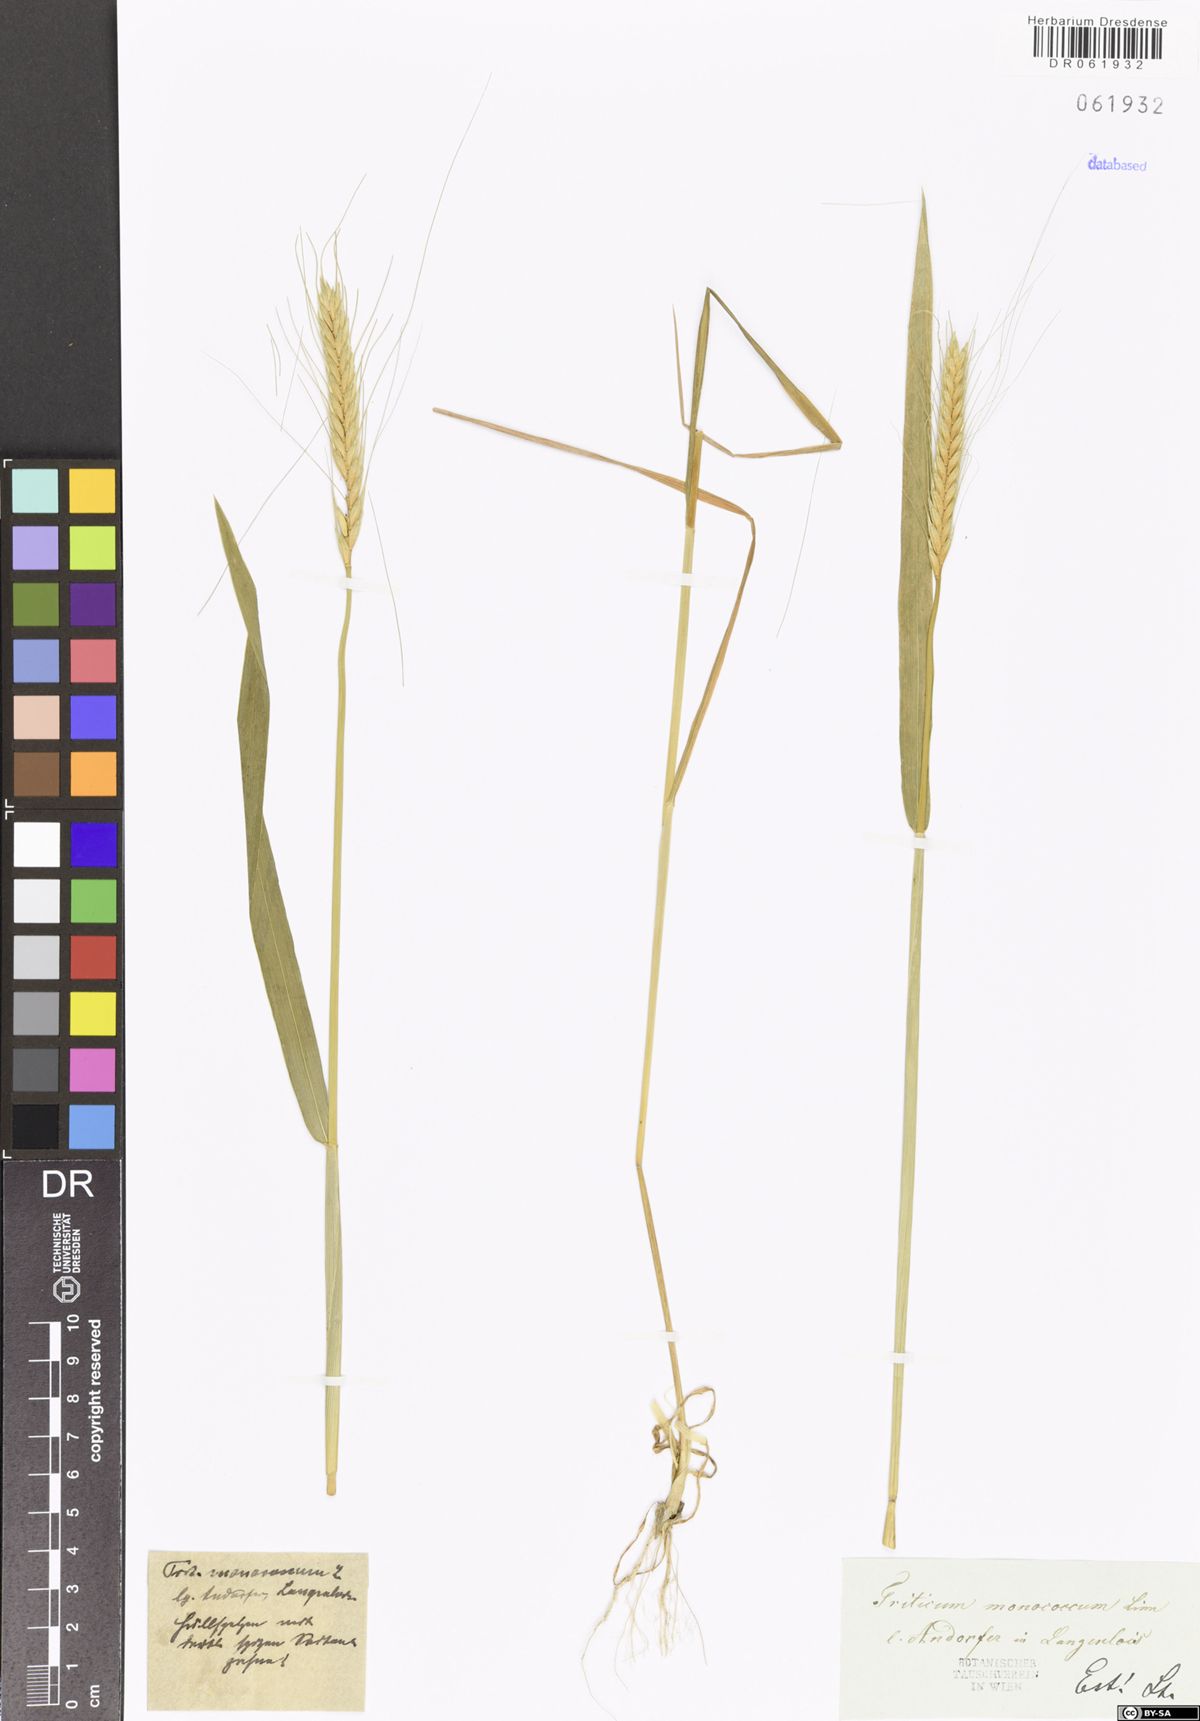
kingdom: Plantae
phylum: Tracheophyta
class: Liliopsida
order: Poales
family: Poaceae
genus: Triticum
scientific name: Triticum monococcum
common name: Einkorn
